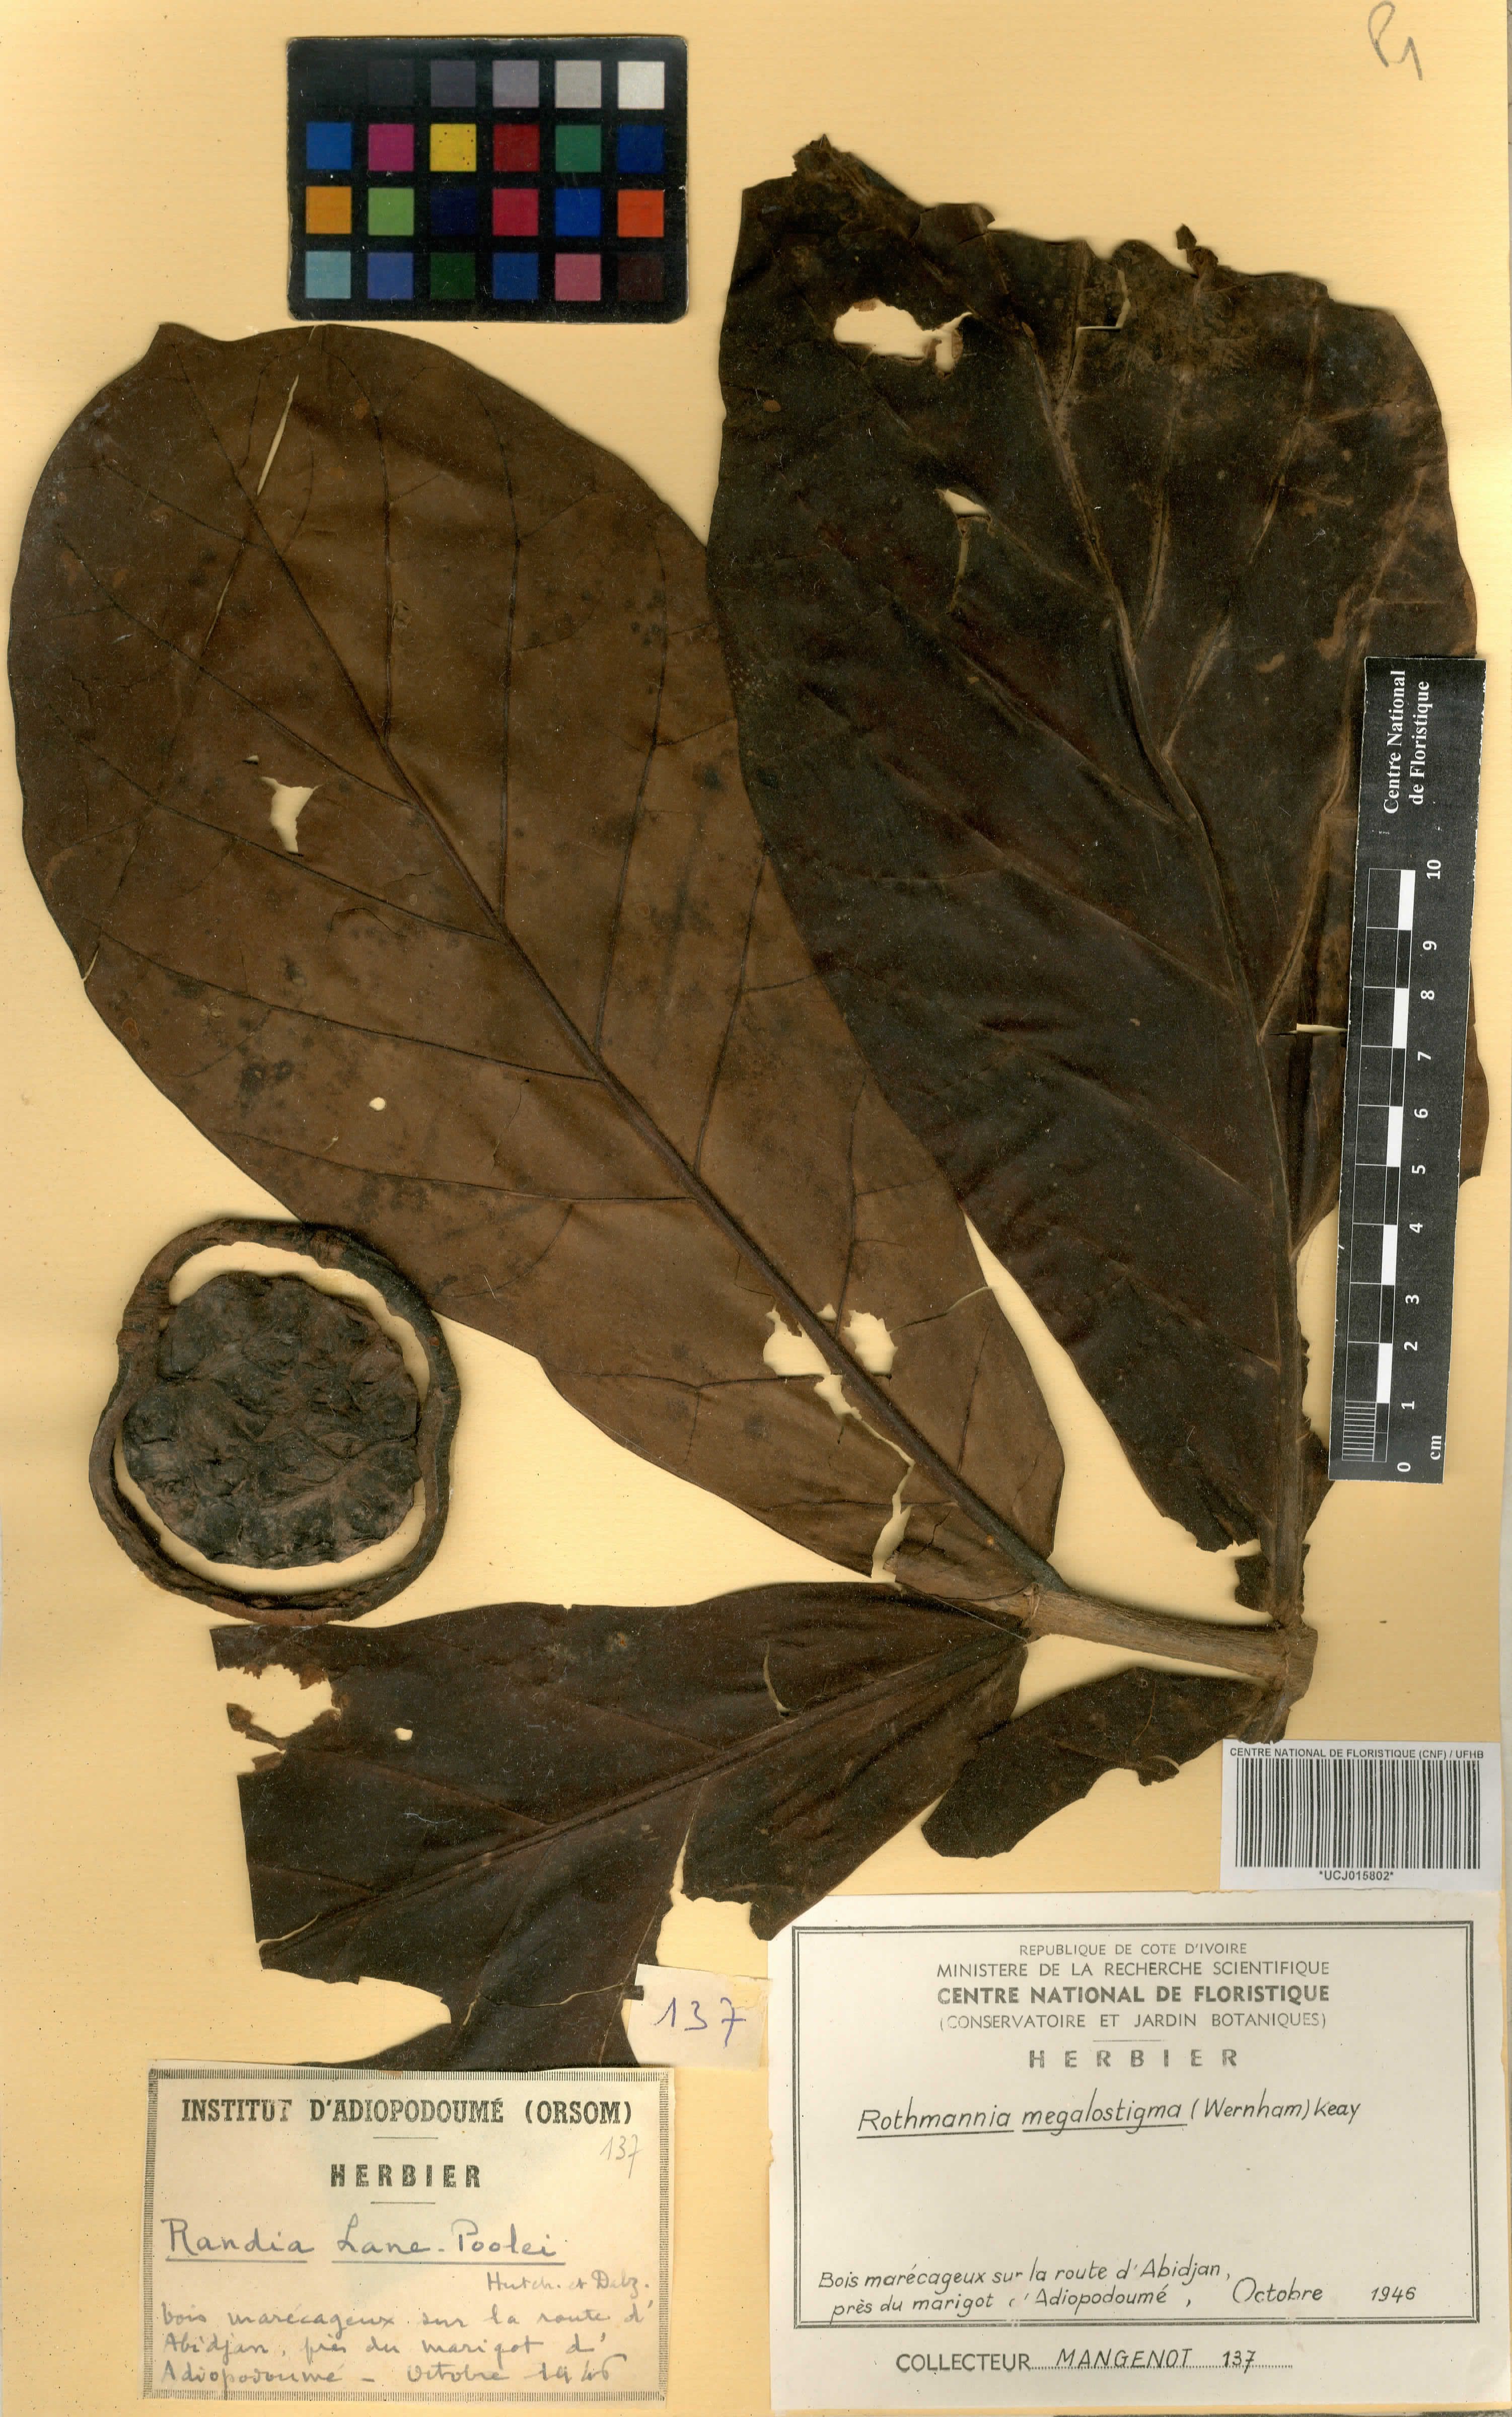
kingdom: Plantae
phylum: Tracheophyta
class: Magnoliopsida
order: Gentianales
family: Rubiaceae
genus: Rothmannia
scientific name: Rothmannia munsae
